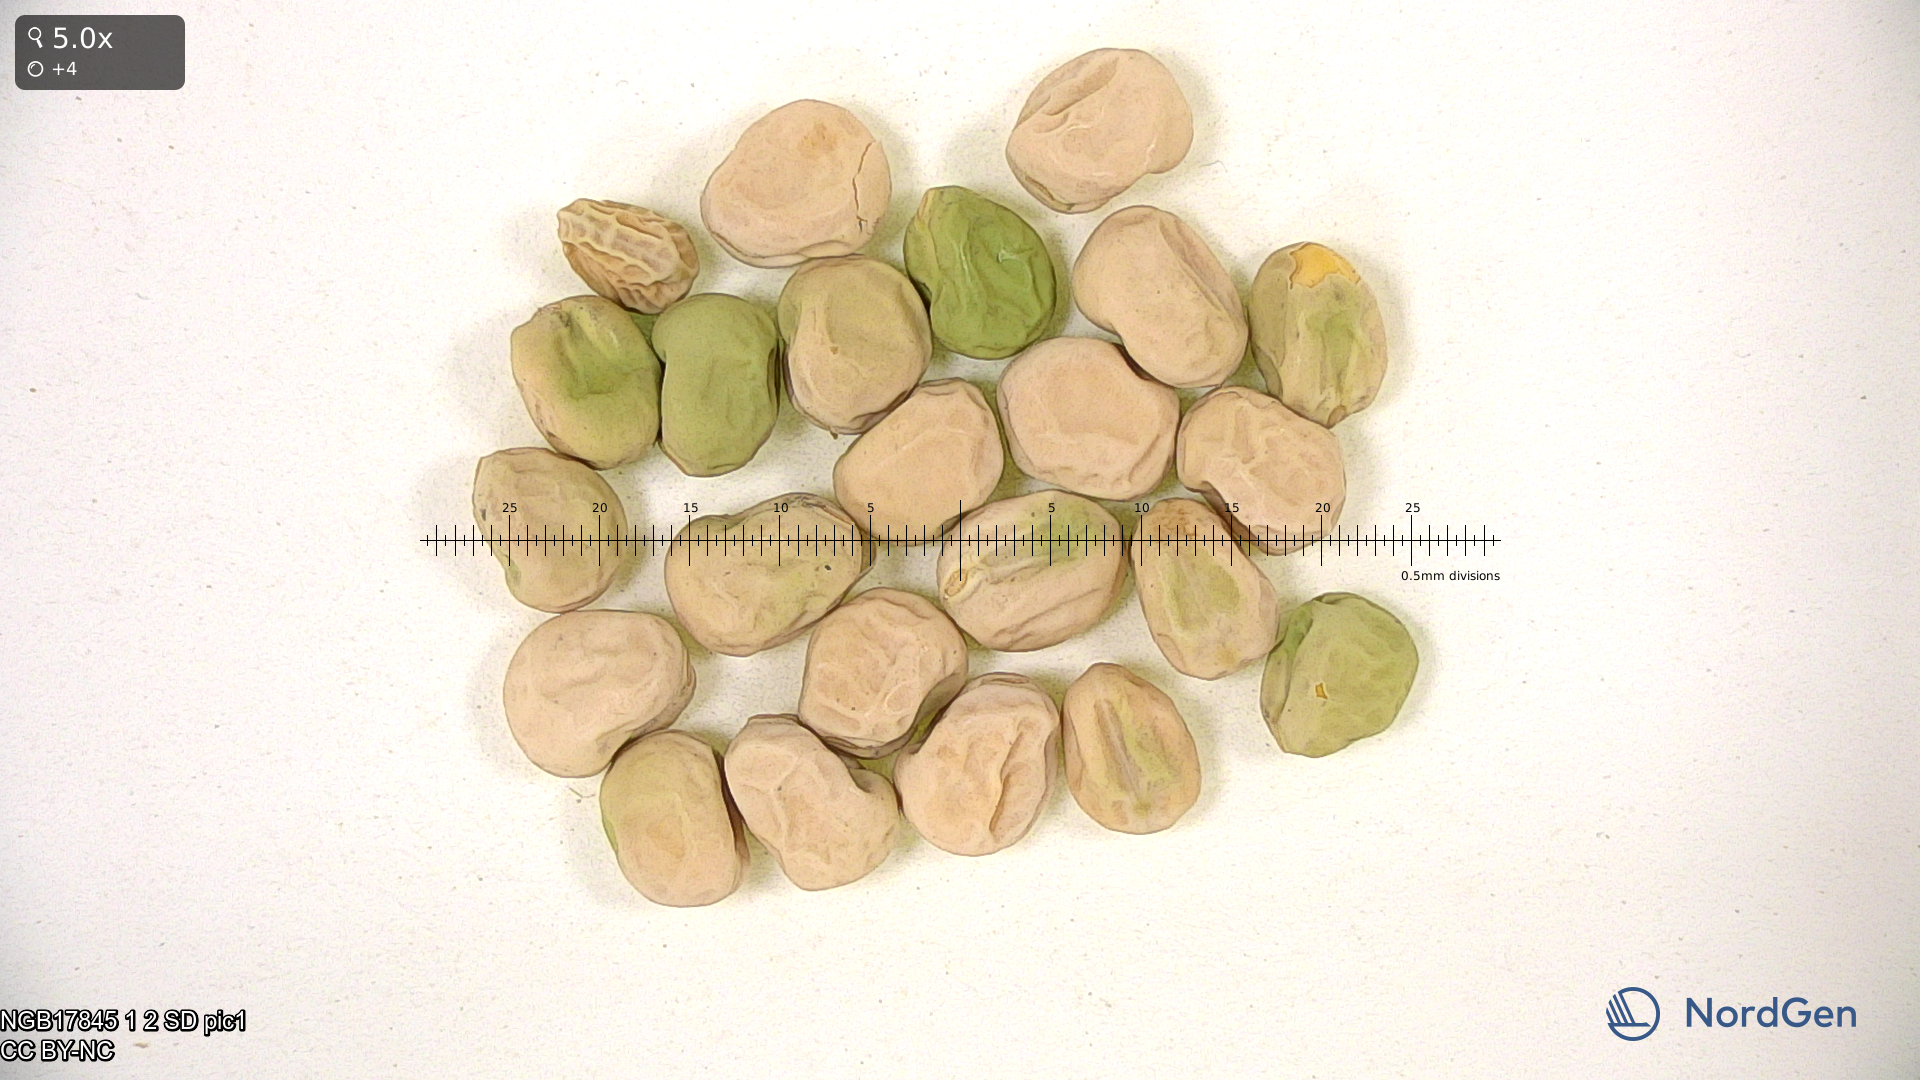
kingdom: Plantae
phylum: Tracheophyta
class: Magnoliopsida
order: Fabales
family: Fabaceae
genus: Lathyrus
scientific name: Lathyrus oleraceus
